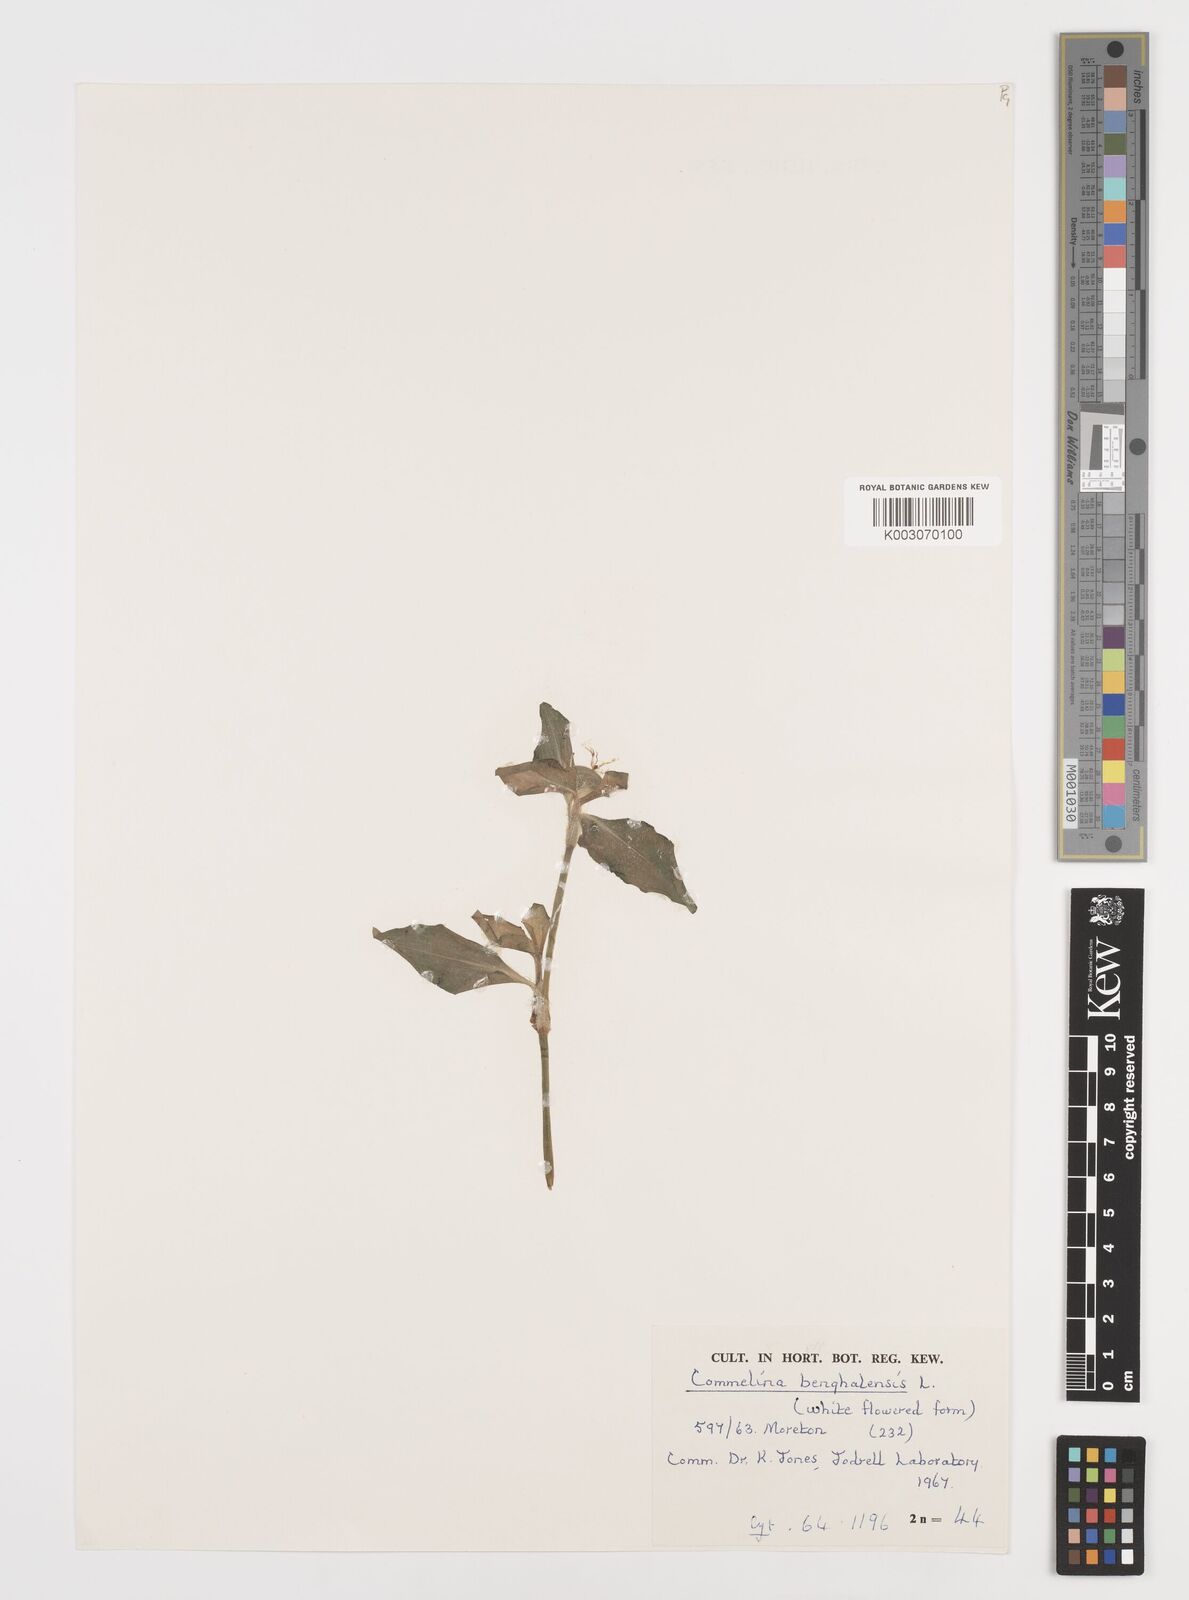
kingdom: Plantae
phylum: Tracheophyta
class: Liliopsida
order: Commelinales
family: Commelinaceae
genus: Commelina
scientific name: Commelina benghalensis
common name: Jio
